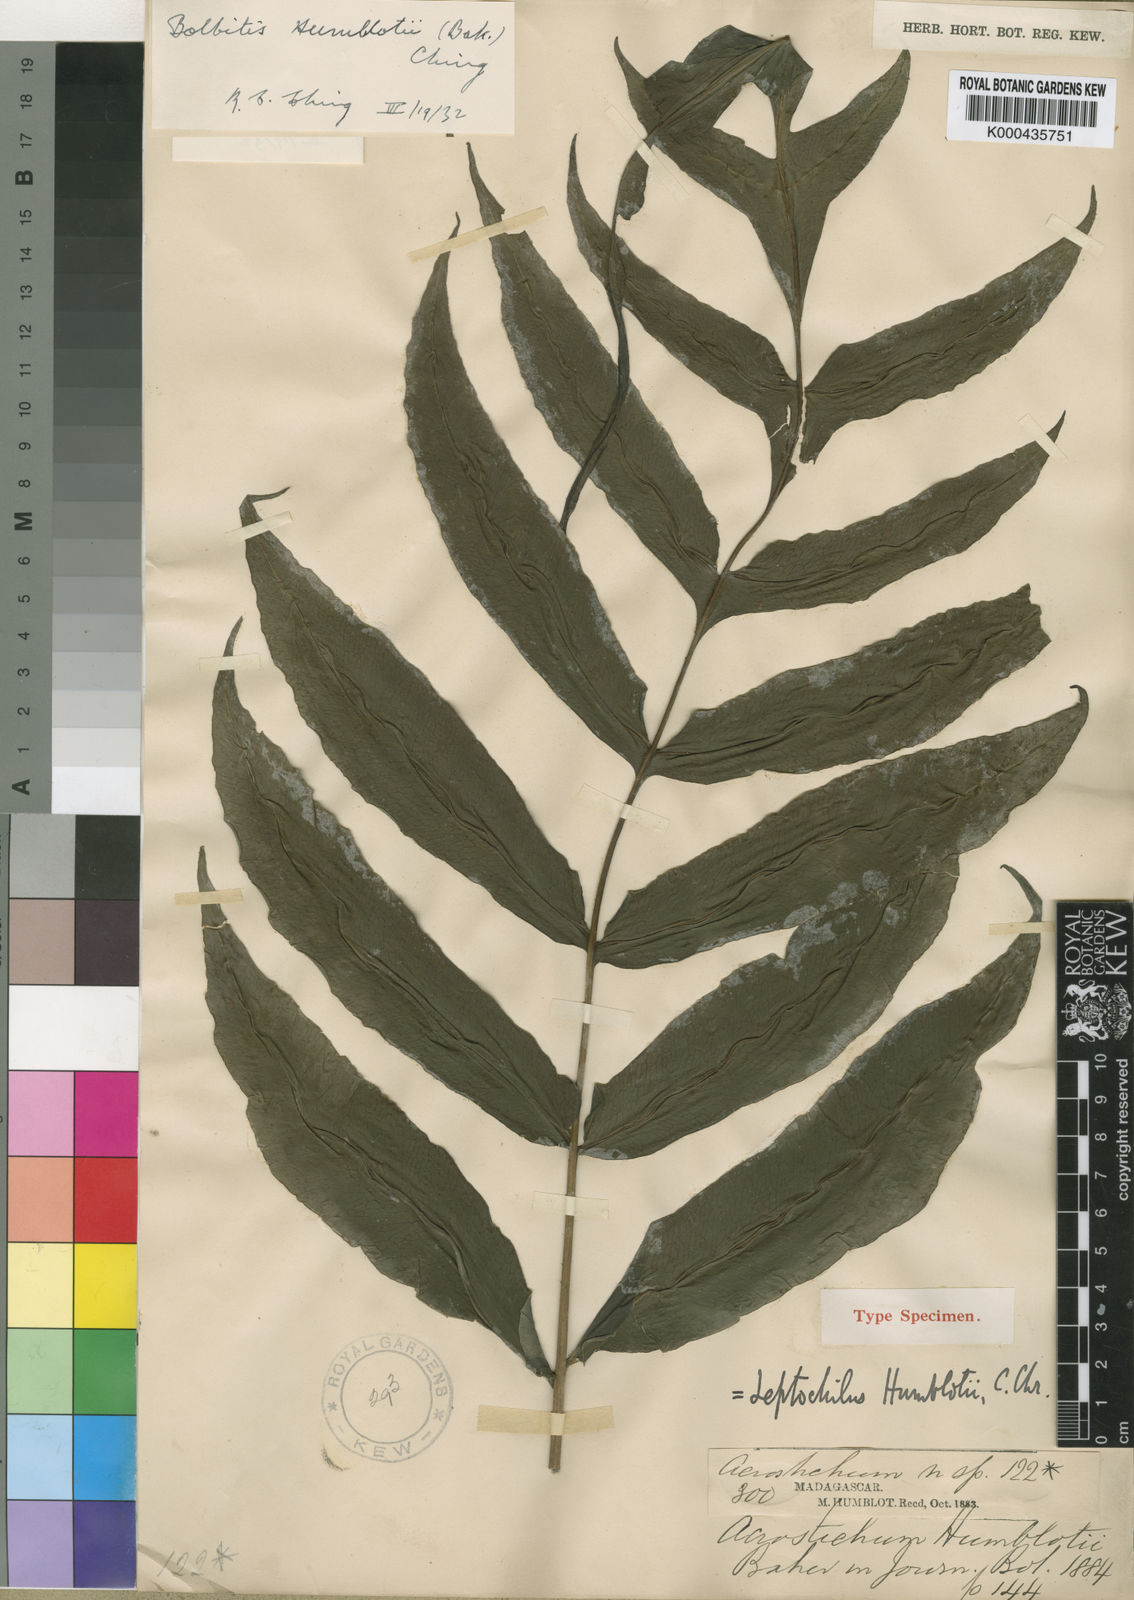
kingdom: Plantae
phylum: Tracheophyta
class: Polypodiopsida
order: Polypodiales
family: Dryopteridaceae
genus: Bolbitis
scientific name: Bolbitis humblotii
